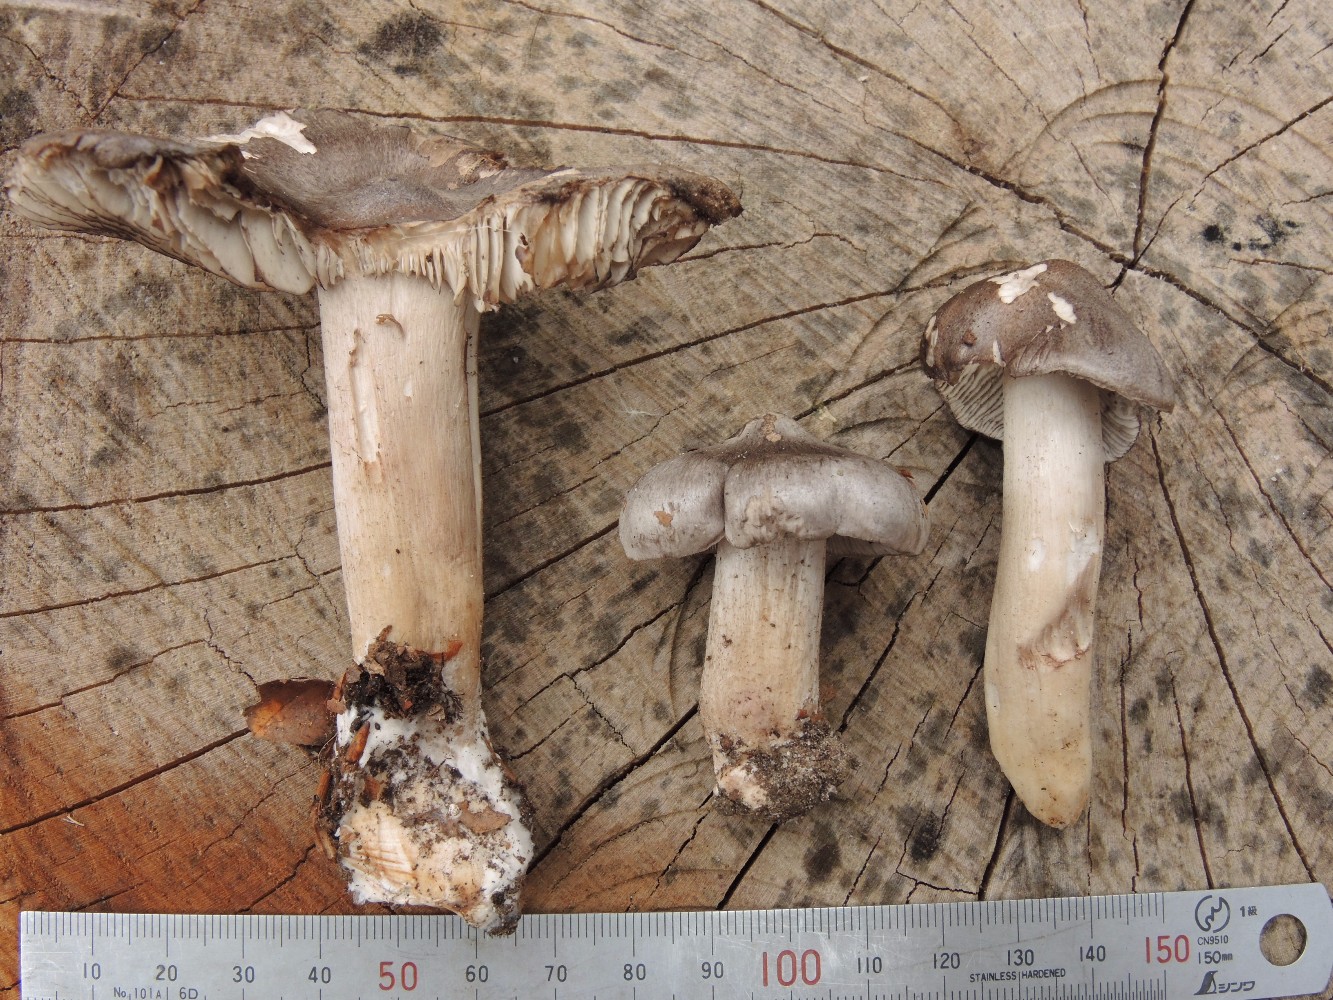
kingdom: Fungi
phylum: Basidiomycota
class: Agaricomycetes
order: Agaricales
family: Tricholomataceae
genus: Tricholoma
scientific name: Tricholoma sciodes
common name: stribet ridderhat
